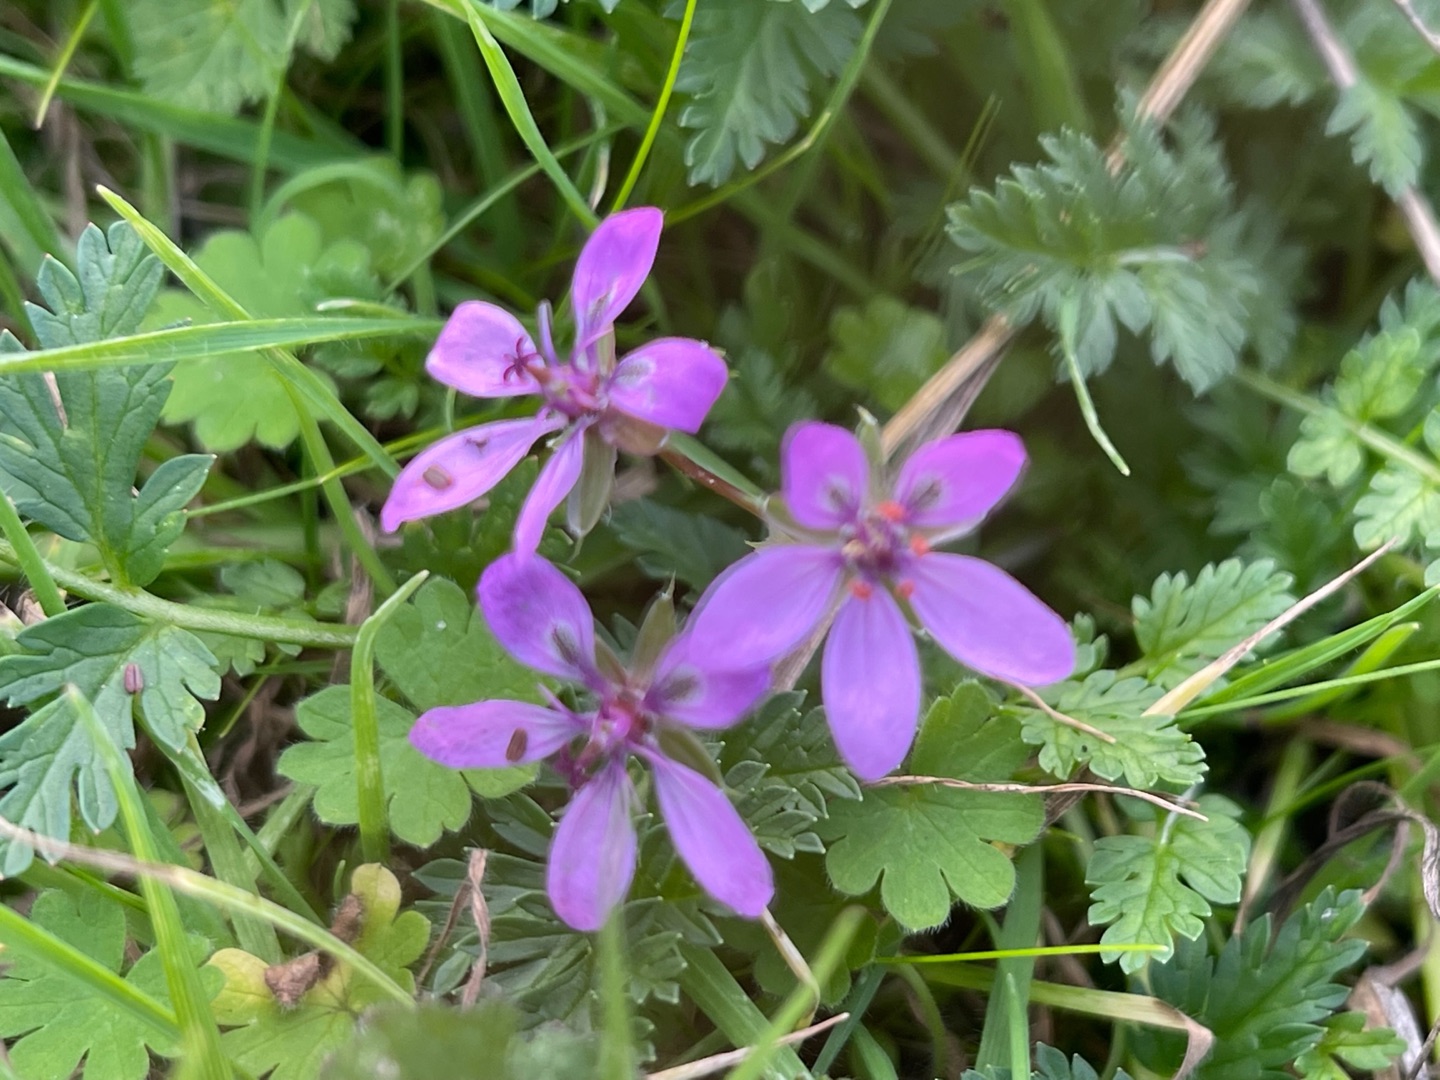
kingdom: Plantae
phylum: Tracheophyta
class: Magnoliopsida
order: Geraniales
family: Geraniaceae
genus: Erodium
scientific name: Erodium cicutarium
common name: Hejrenæb
